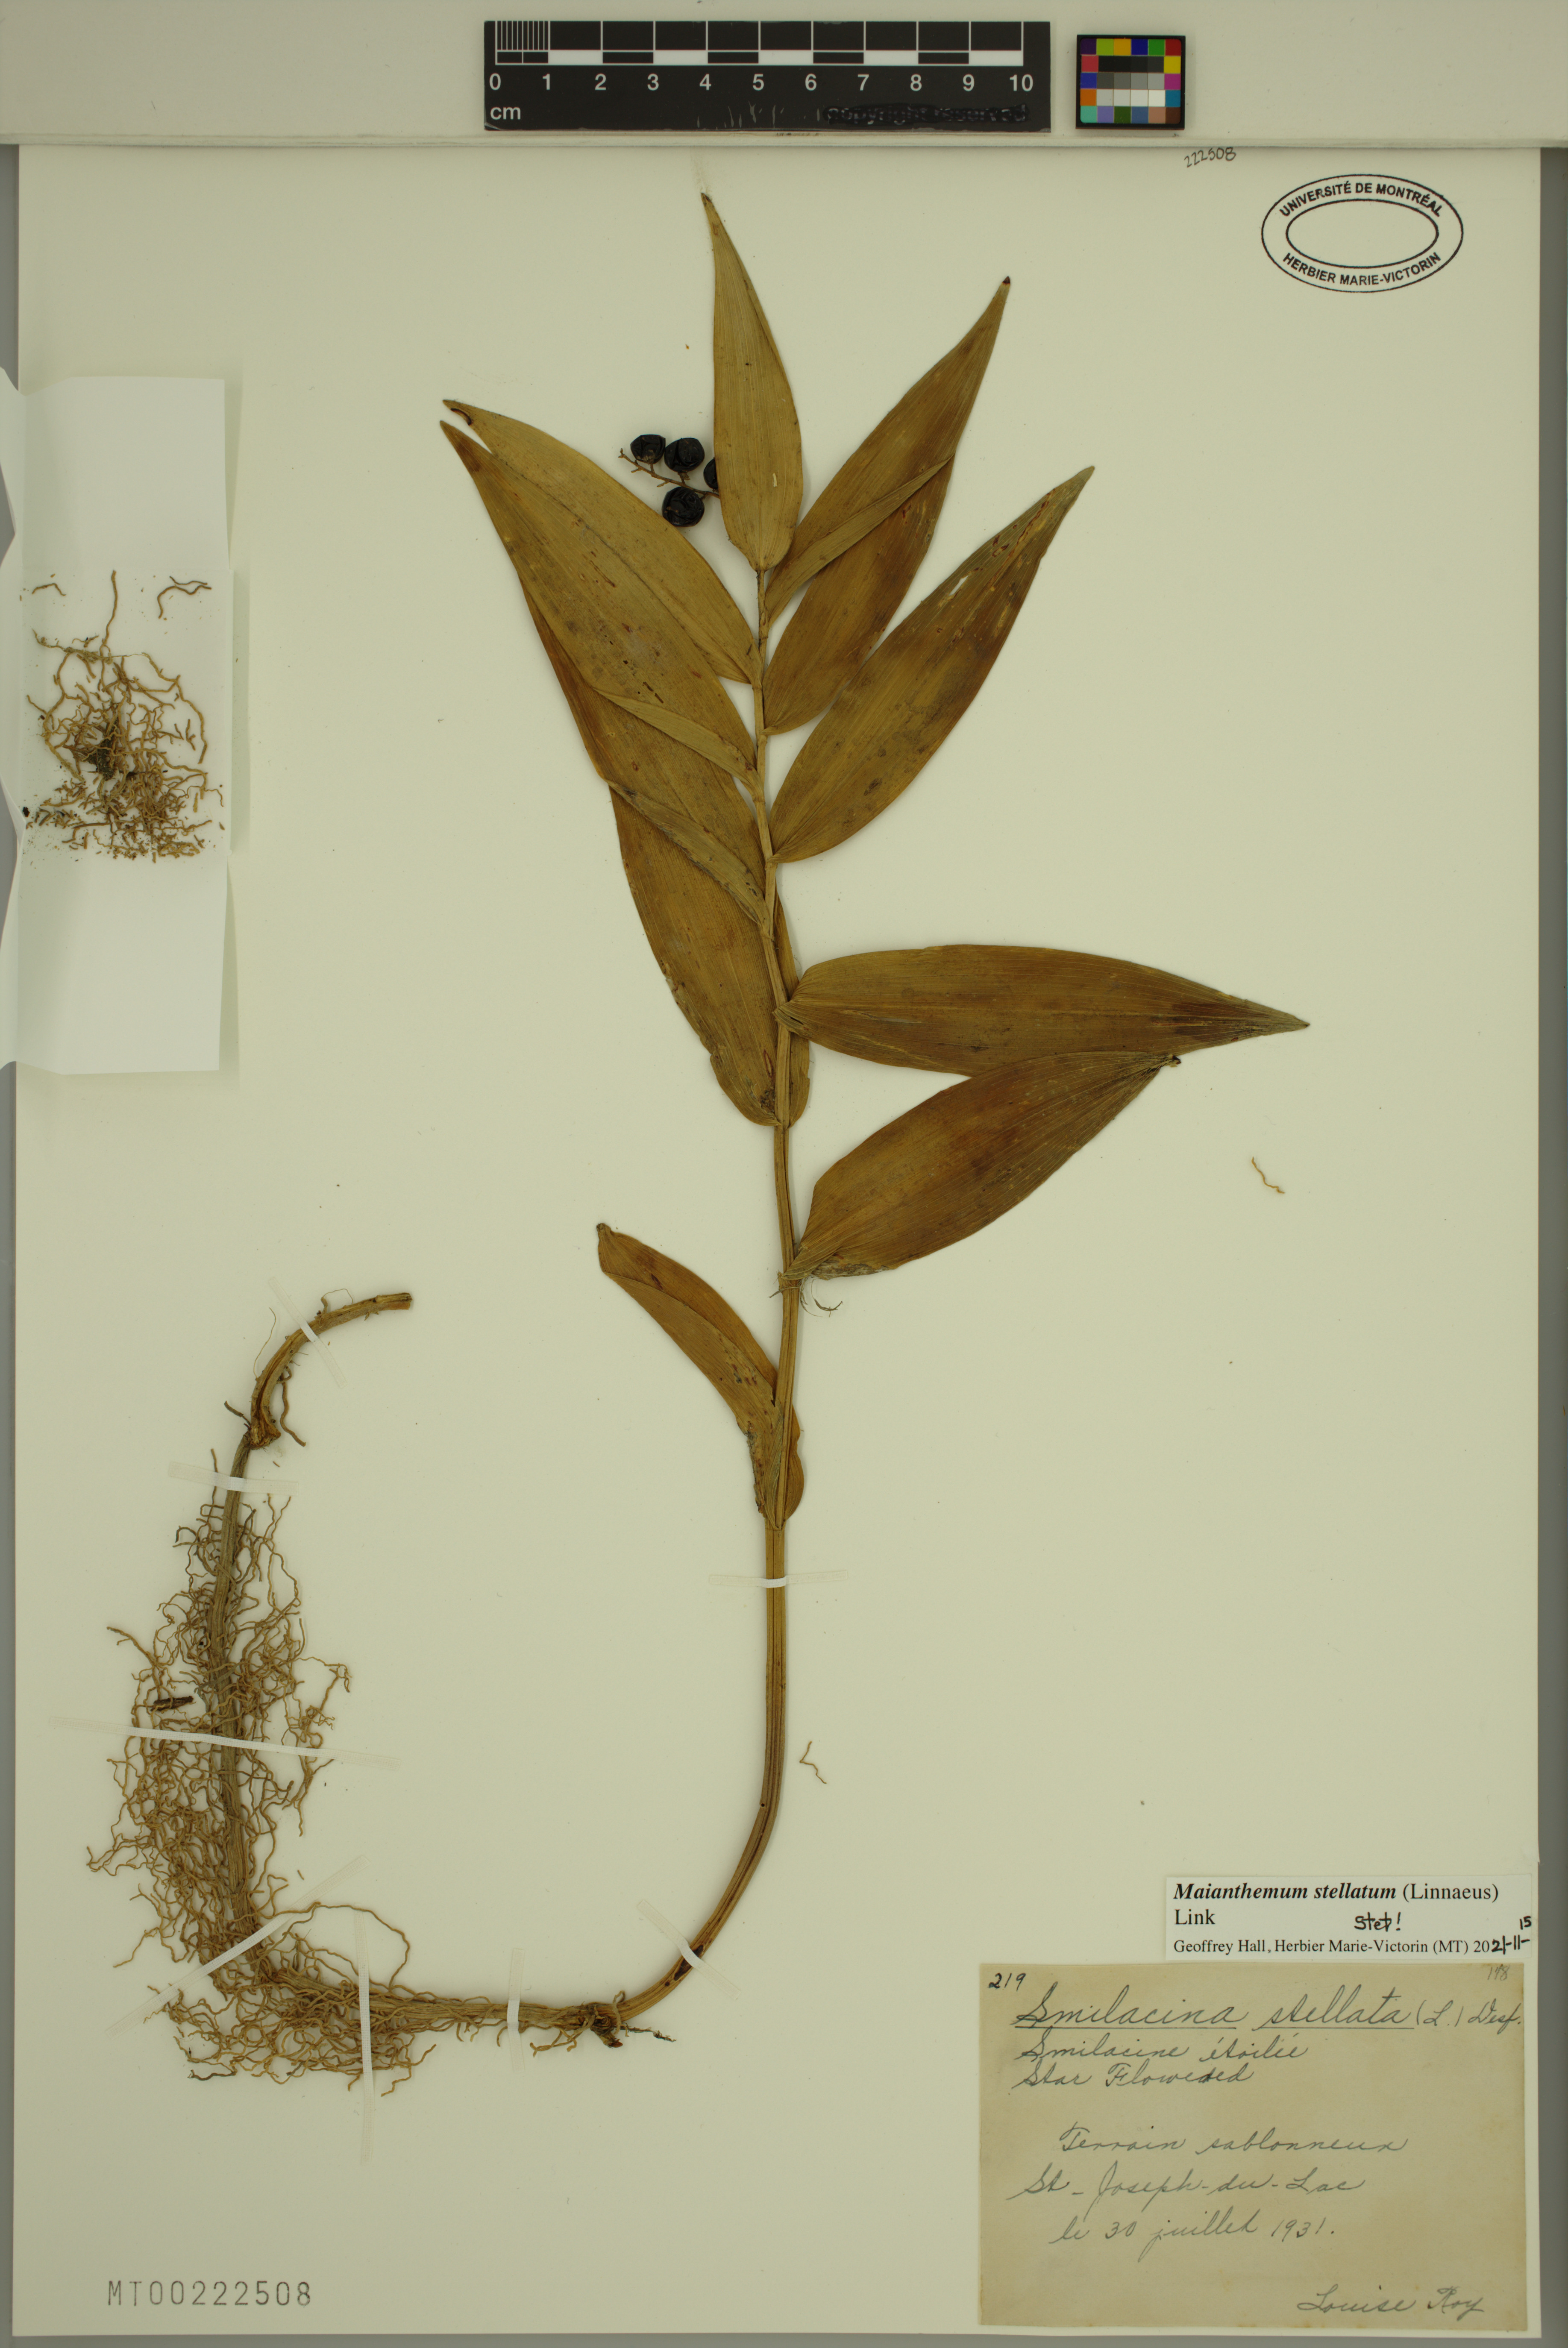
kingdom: Plantae
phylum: Tracheophyta
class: Liliopsida
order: Asparagales
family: Asparagaceae
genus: Maianthemum
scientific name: Maianthemum stellatum
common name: Little false solomon's seal
